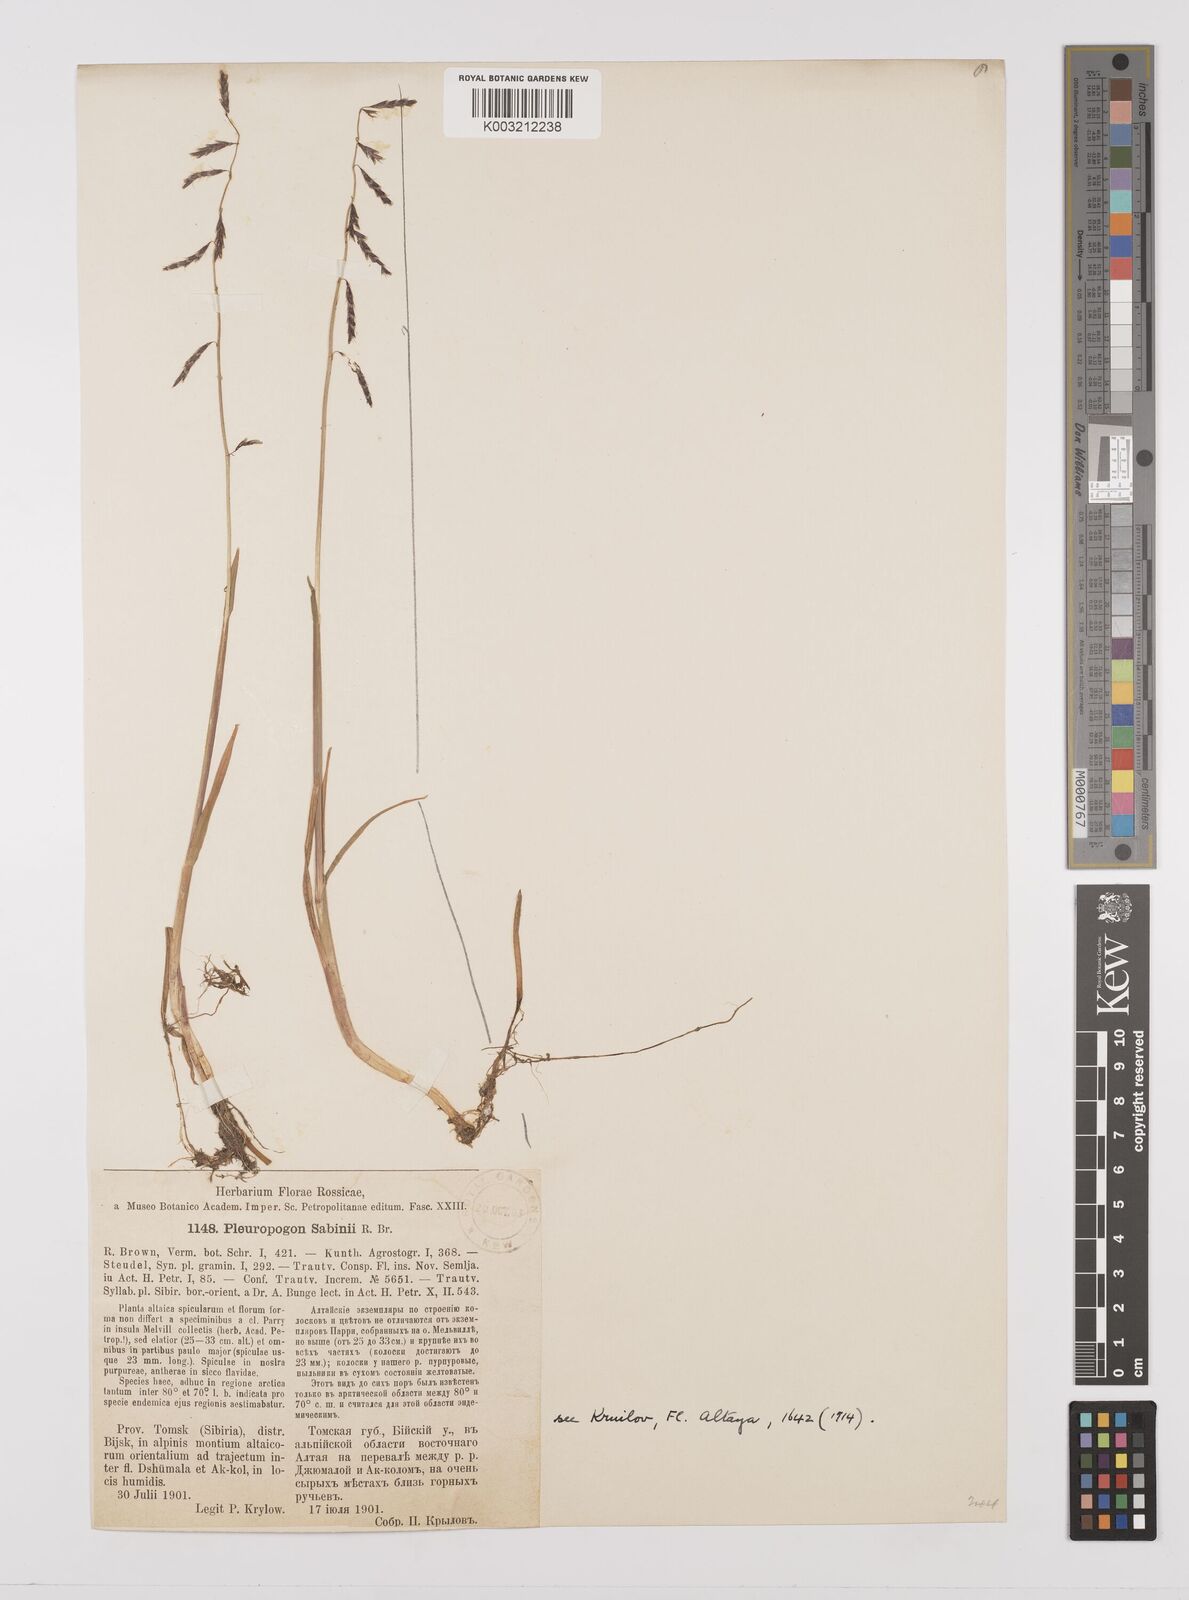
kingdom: Plantae
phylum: Tracheophyta
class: Liliopsida
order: Poales
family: Poaceae
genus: Pleuropogon
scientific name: Pleuropogon sabinei
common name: Sabine's false semaphoregrass
